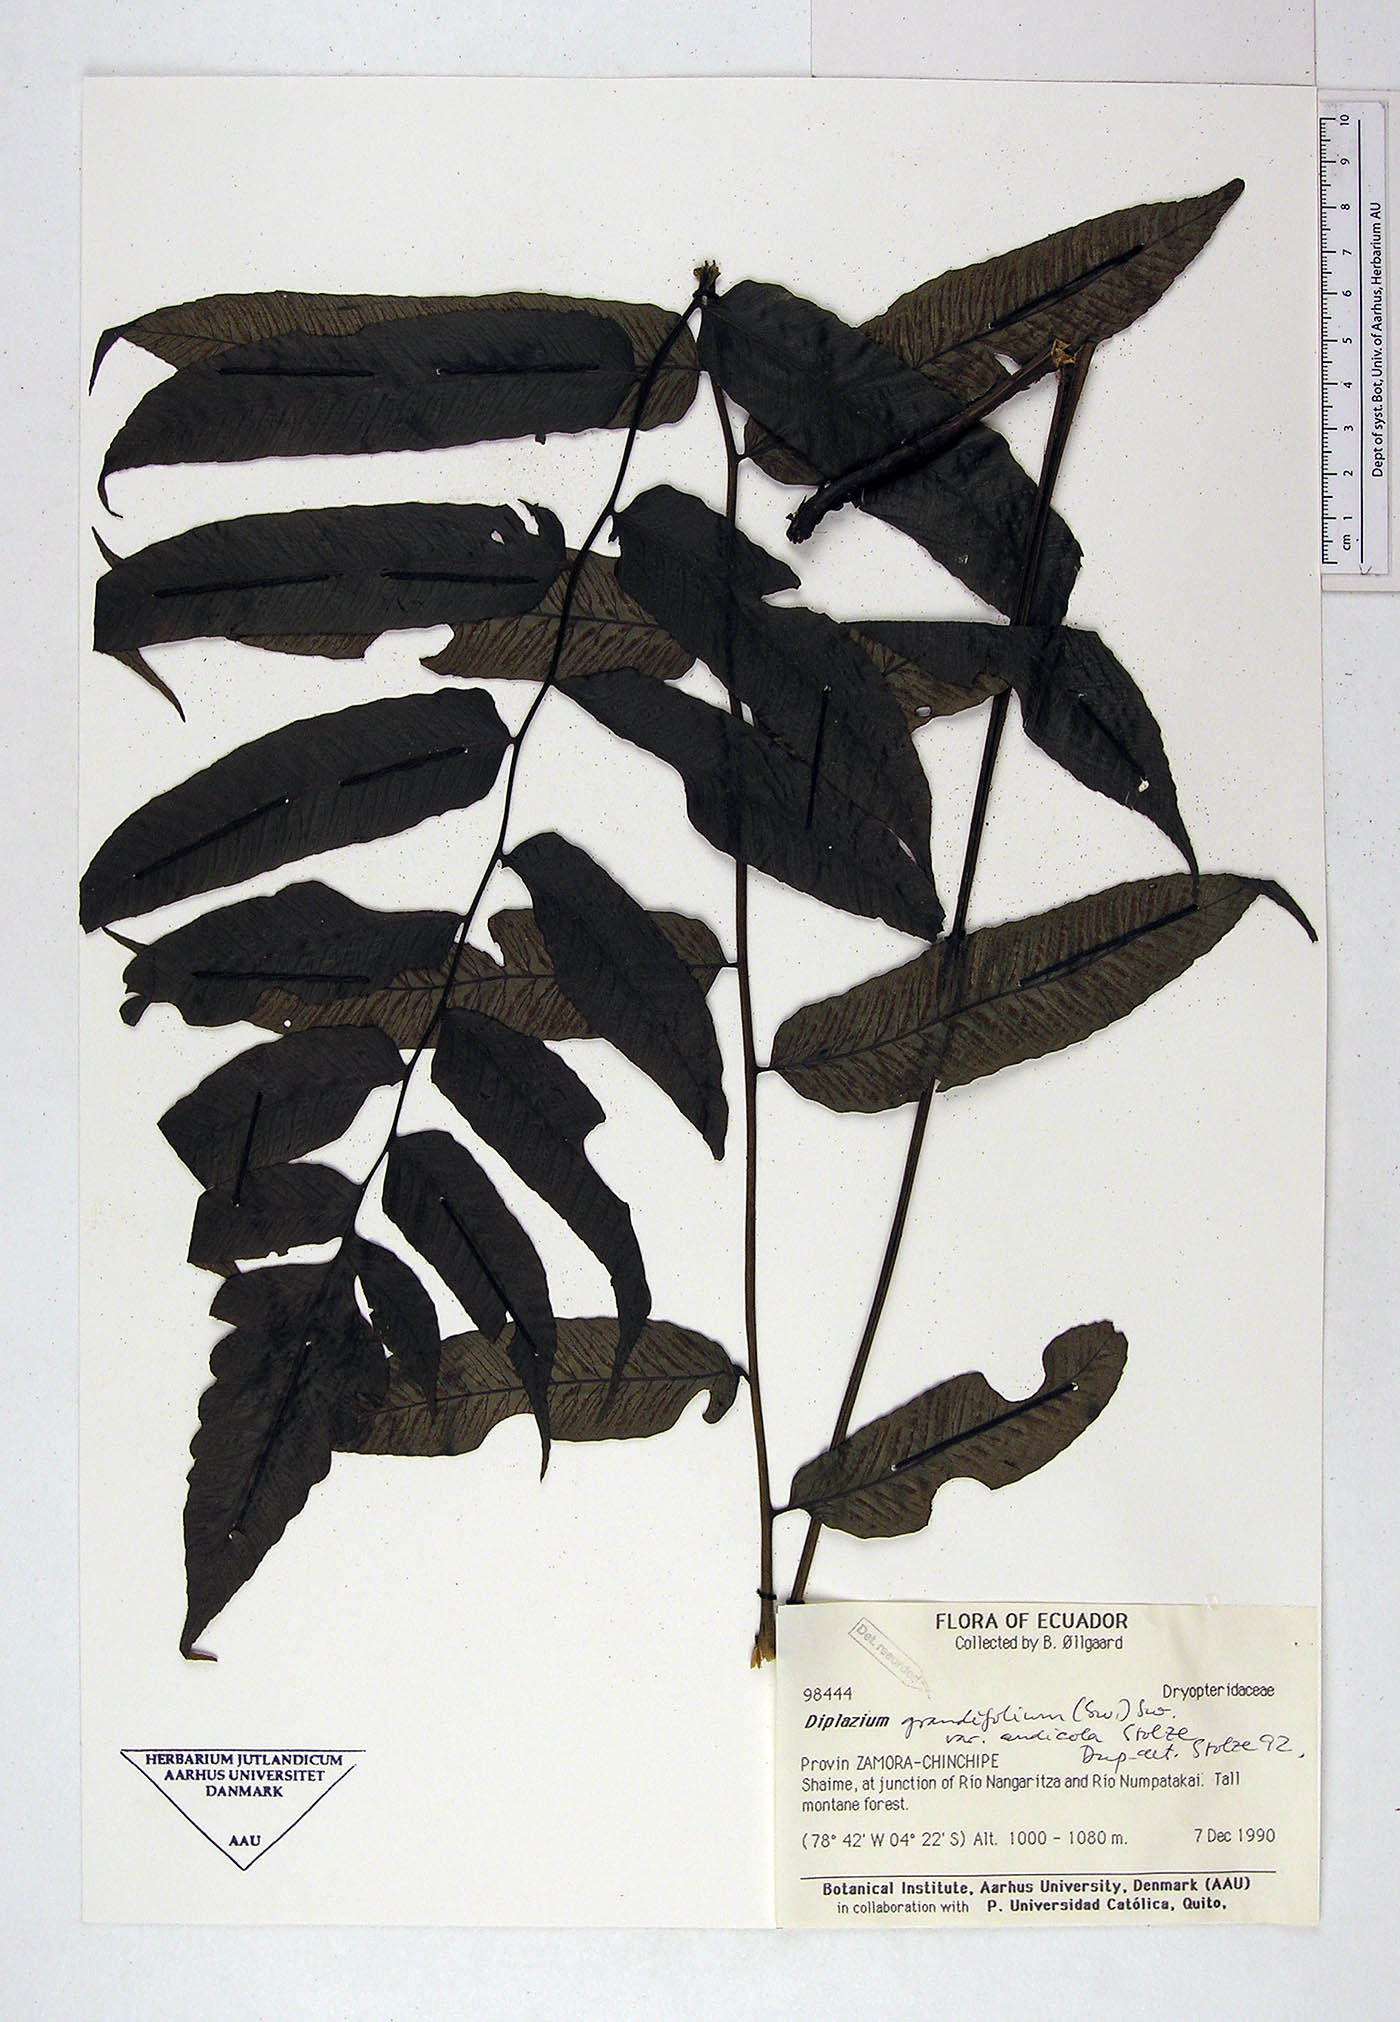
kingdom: Plantae
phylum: Tracheophyta
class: Polypodiopsida
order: Polypodiales
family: Athyriaceae
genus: Diplazium
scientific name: Diplazium mattogrossense
